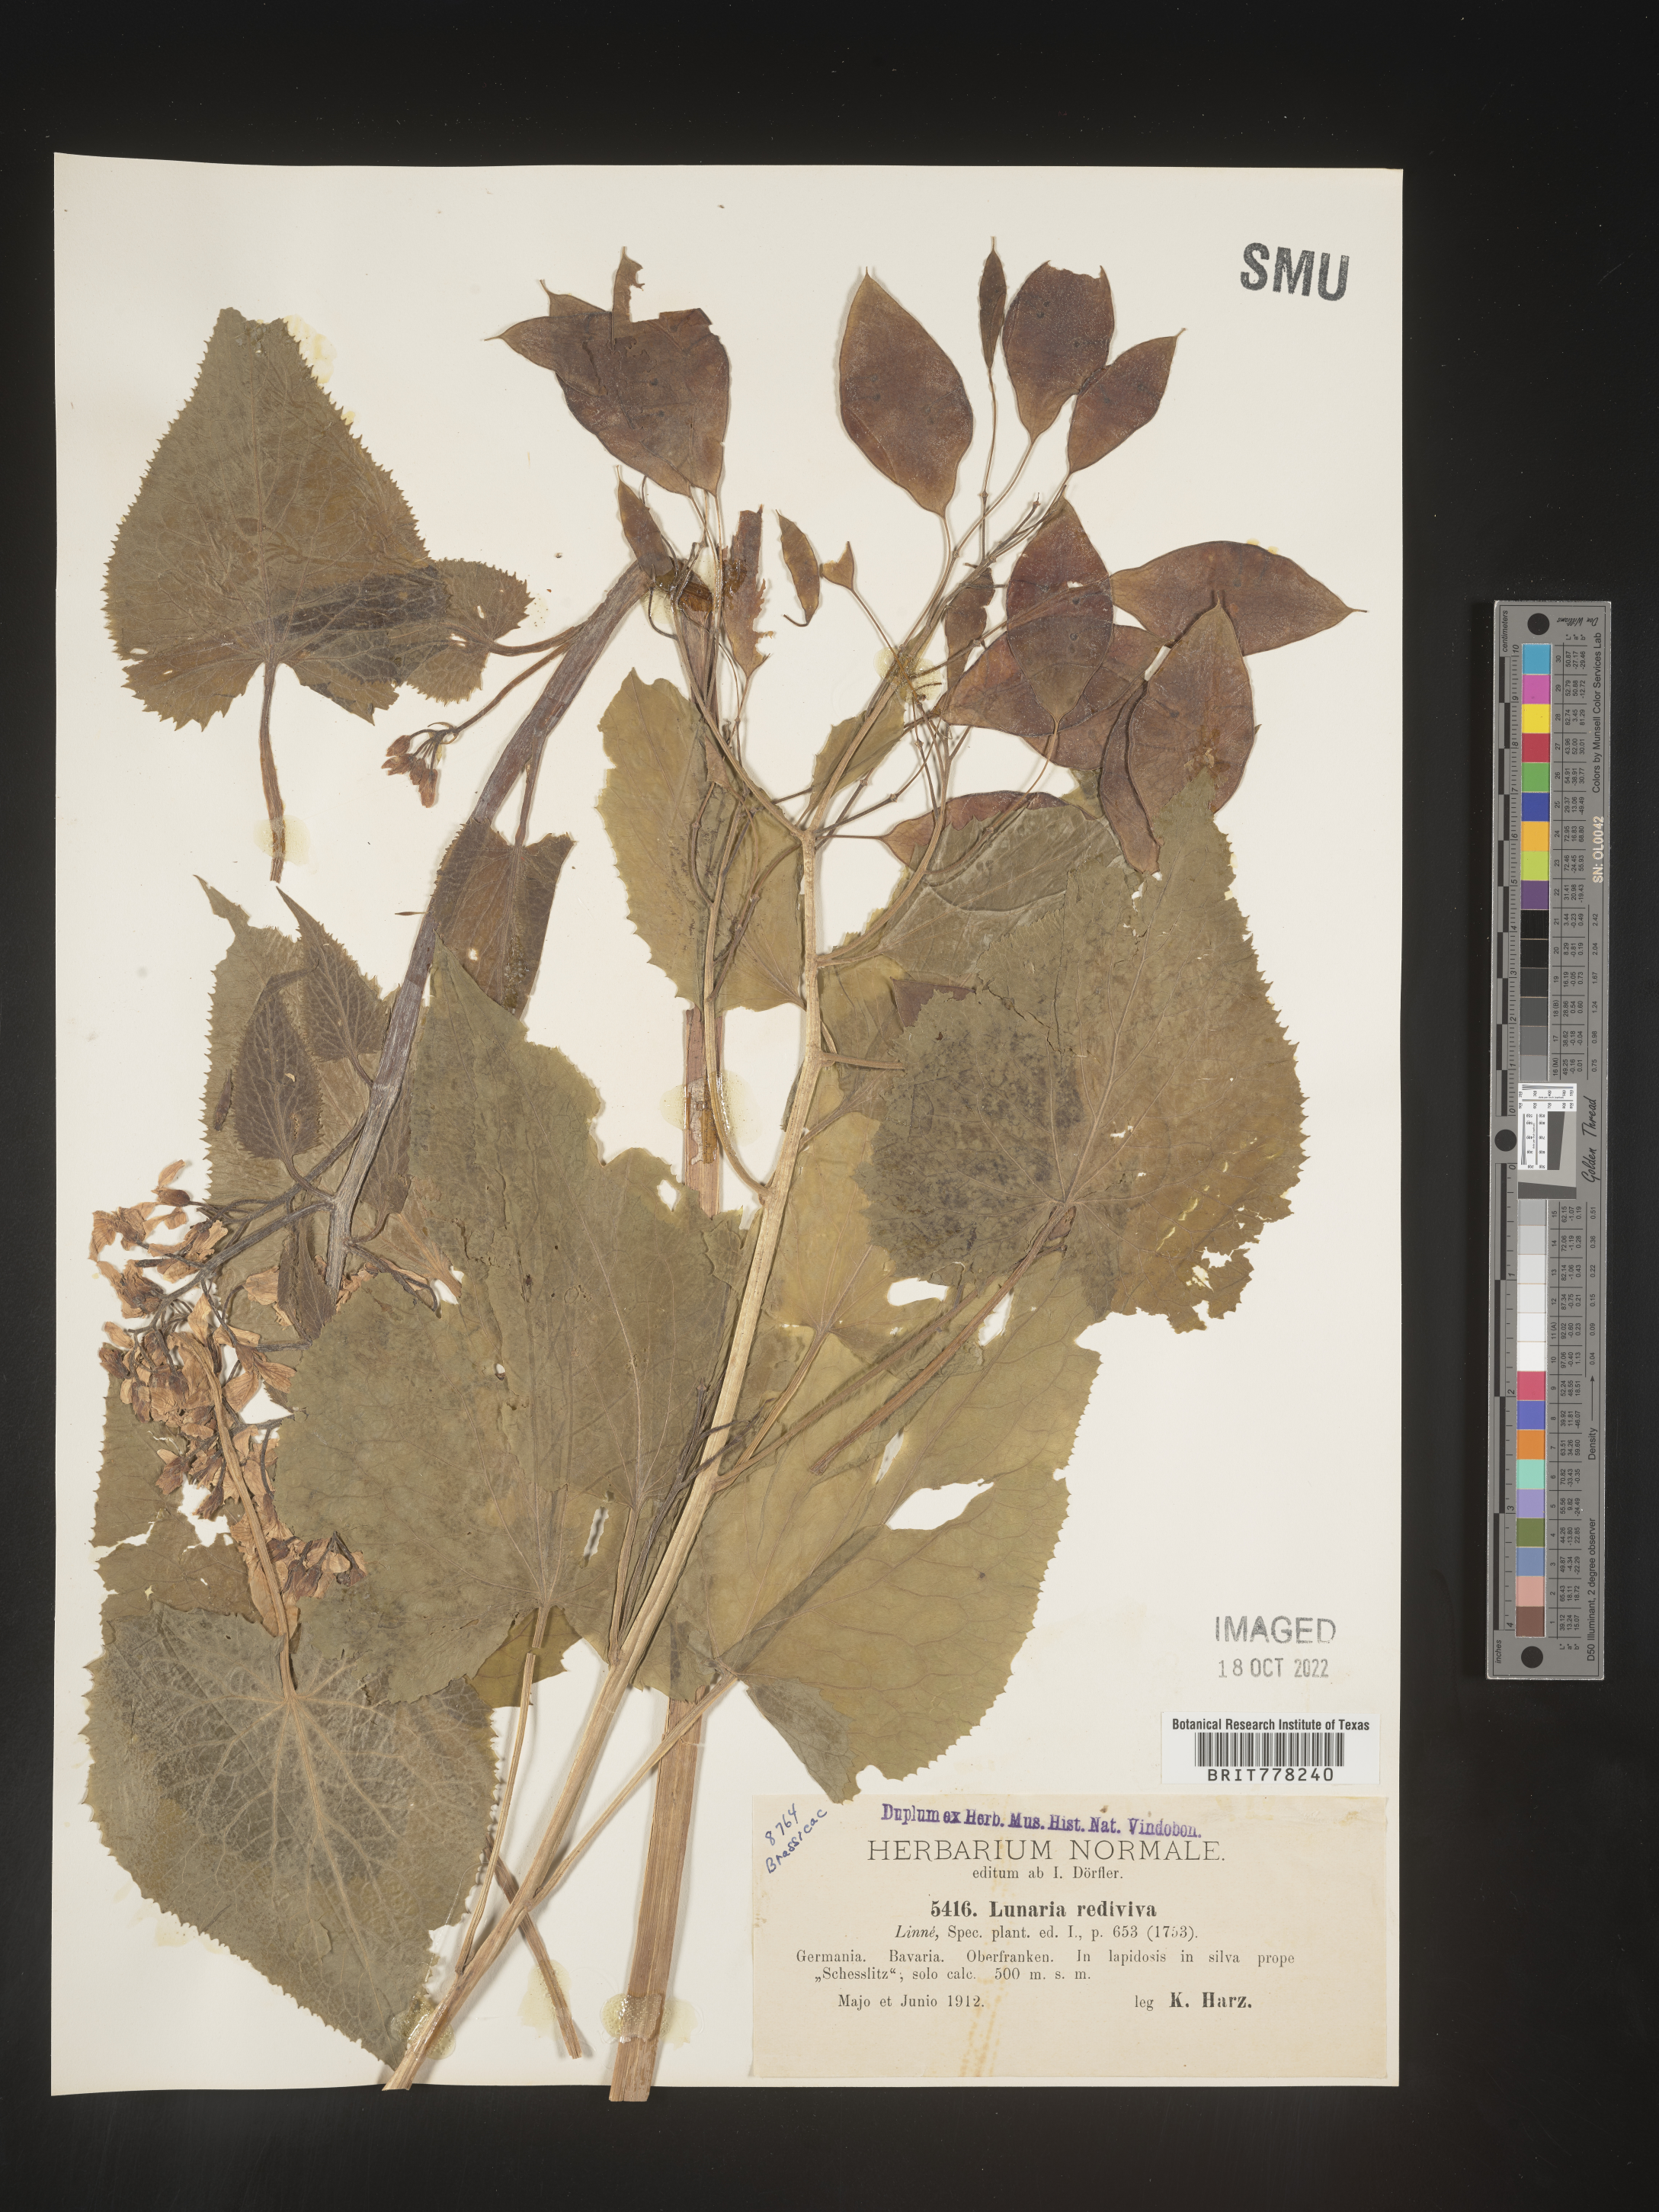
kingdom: Plantae
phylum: Tracheophyta
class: Magnoliopsida
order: Brassicales
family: Brassicaceae
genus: Lunaria
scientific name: Lunaria
